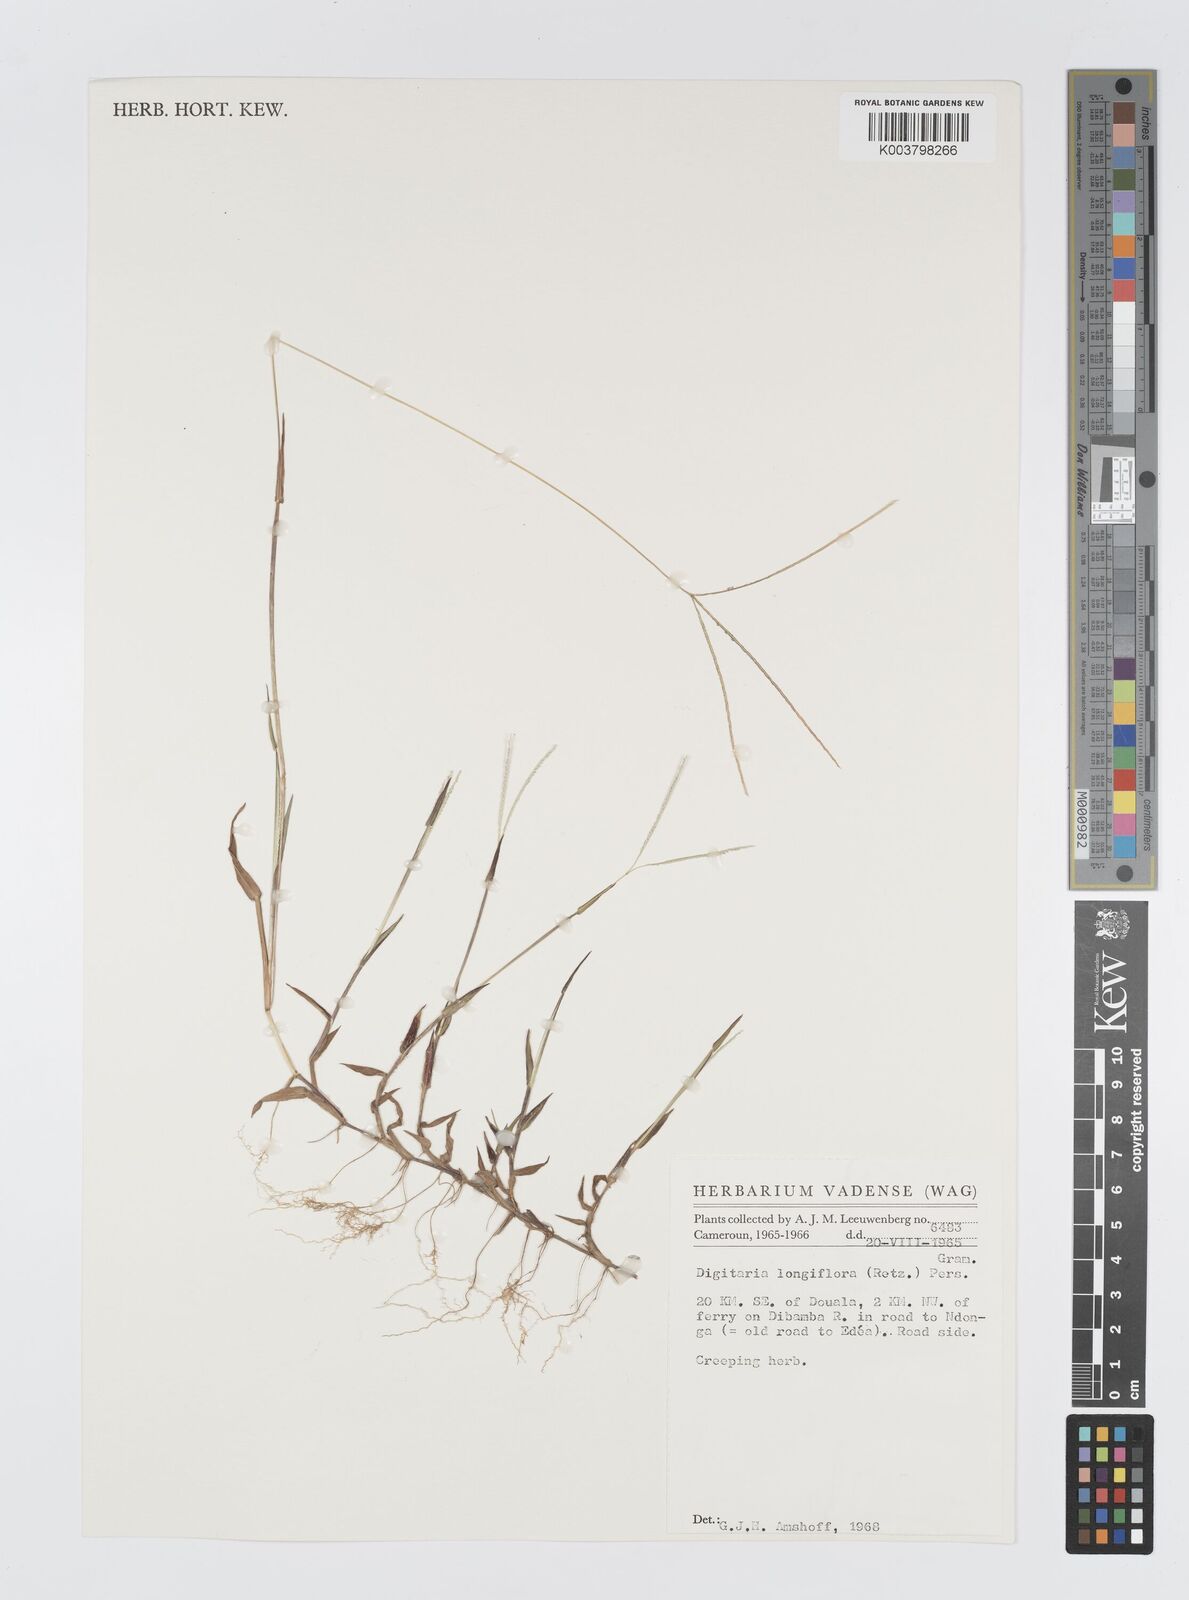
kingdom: Plantae
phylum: Tracheophyta
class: Liliopsida
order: Poales
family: Poaceae
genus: Digitaria
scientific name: Digitaria longiflora
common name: Wire crabgrass
